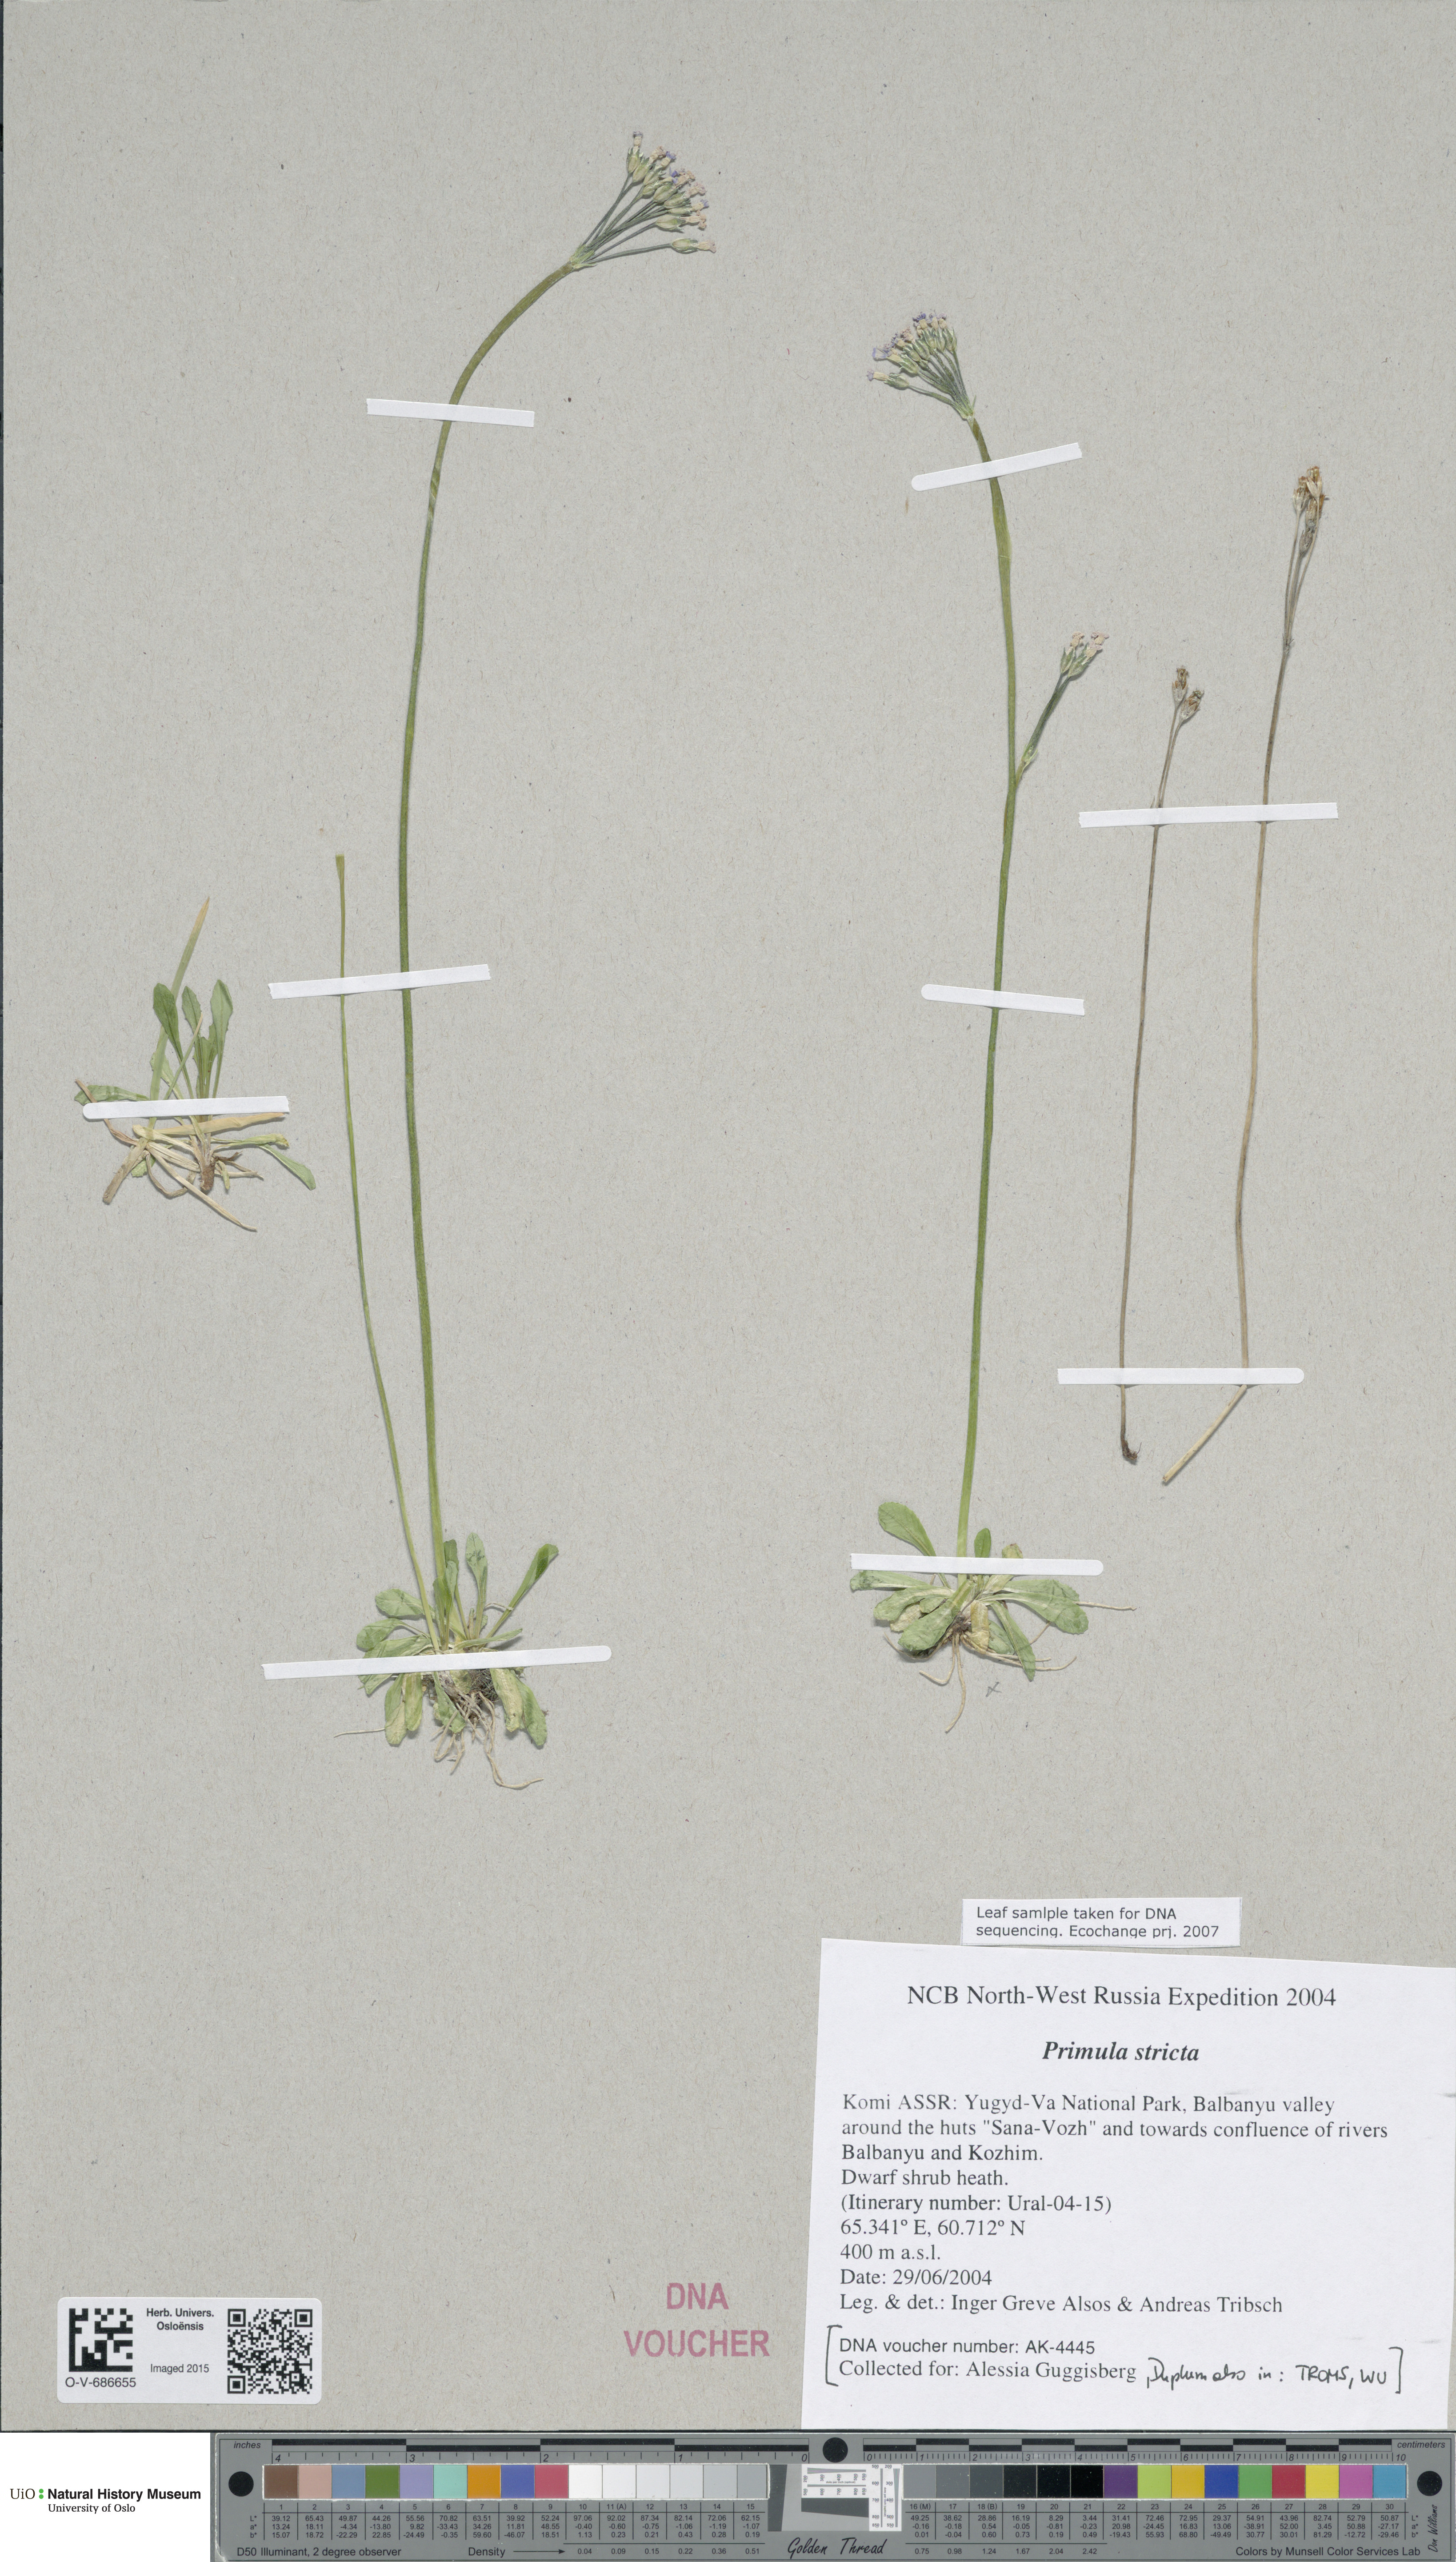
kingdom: Plantae
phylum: Tracheophyta
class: Magnoliopsida
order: Ericales
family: Primulaceae
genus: Primula
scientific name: Primula stricta
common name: Coastal primrose
